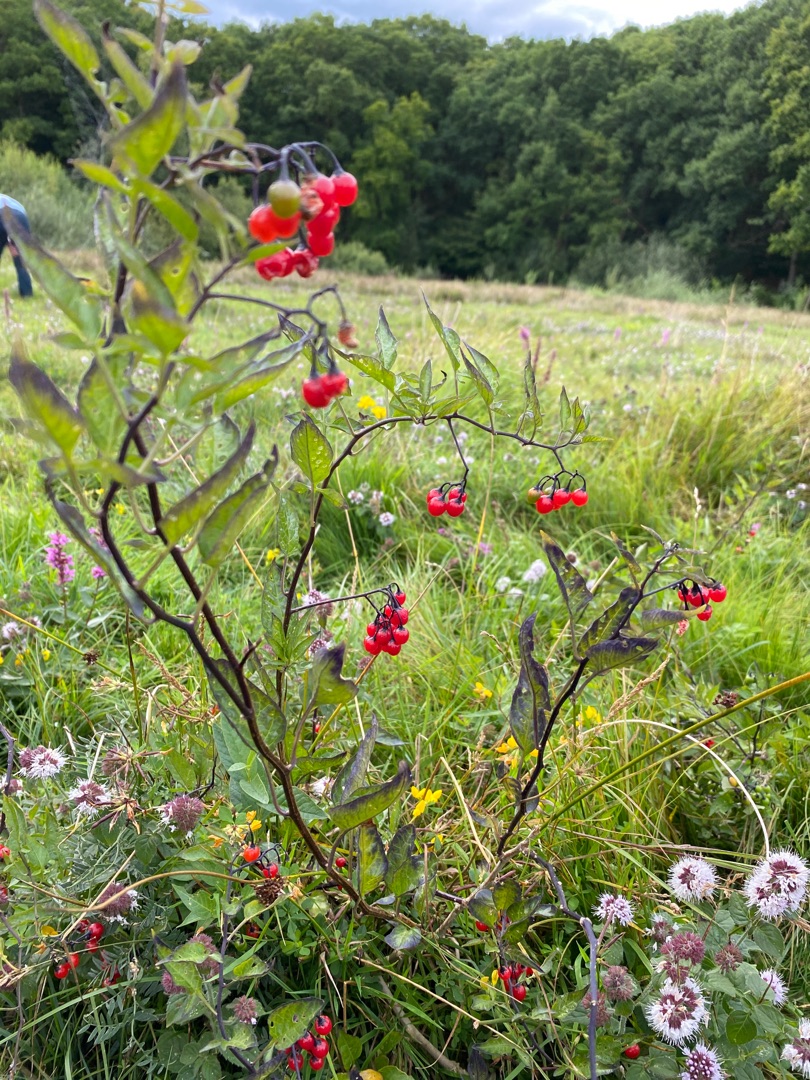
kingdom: Plantae
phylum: Tracheophyta
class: Magnoliopsida
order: Solanales
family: Solanaceae
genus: Solanum
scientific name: Solanum dulcamara
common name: Bittersød natskygge
